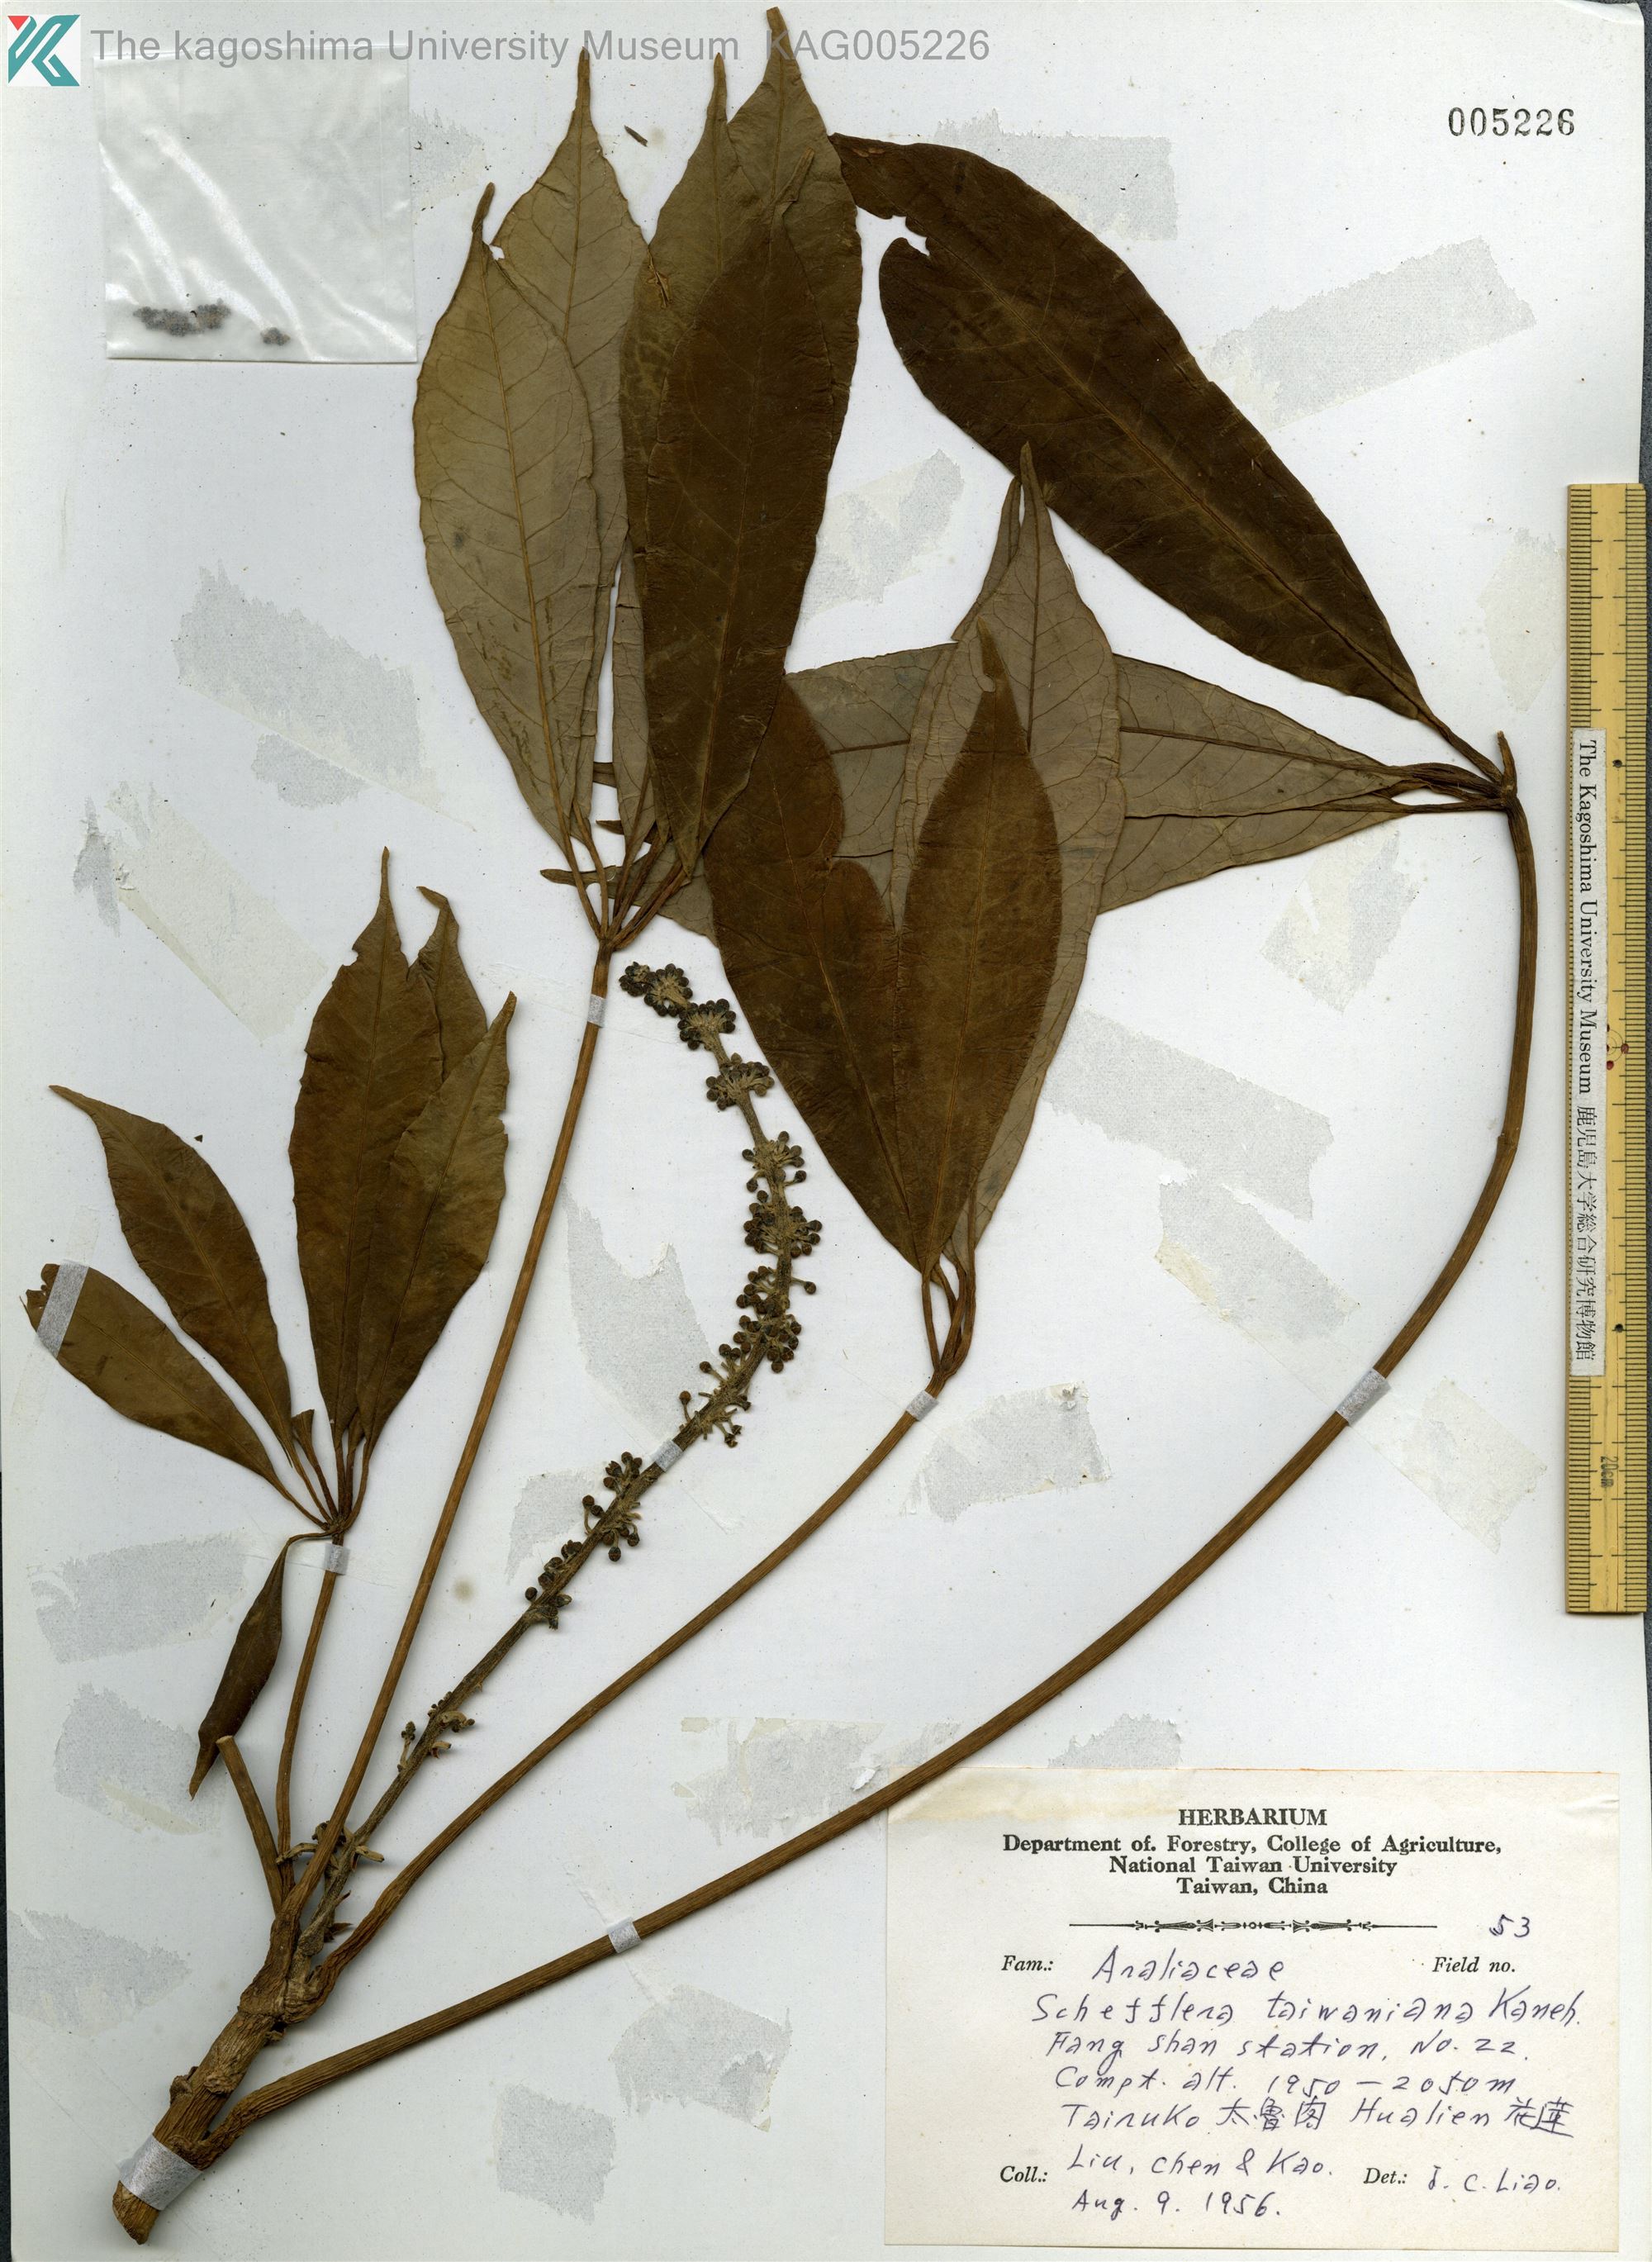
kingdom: Plantae
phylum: Tracheophyta
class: Magnoliopsida
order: Apiales
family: Araliaceae
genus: Heptapleurum
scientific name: Heptapleurum taiwanianum
